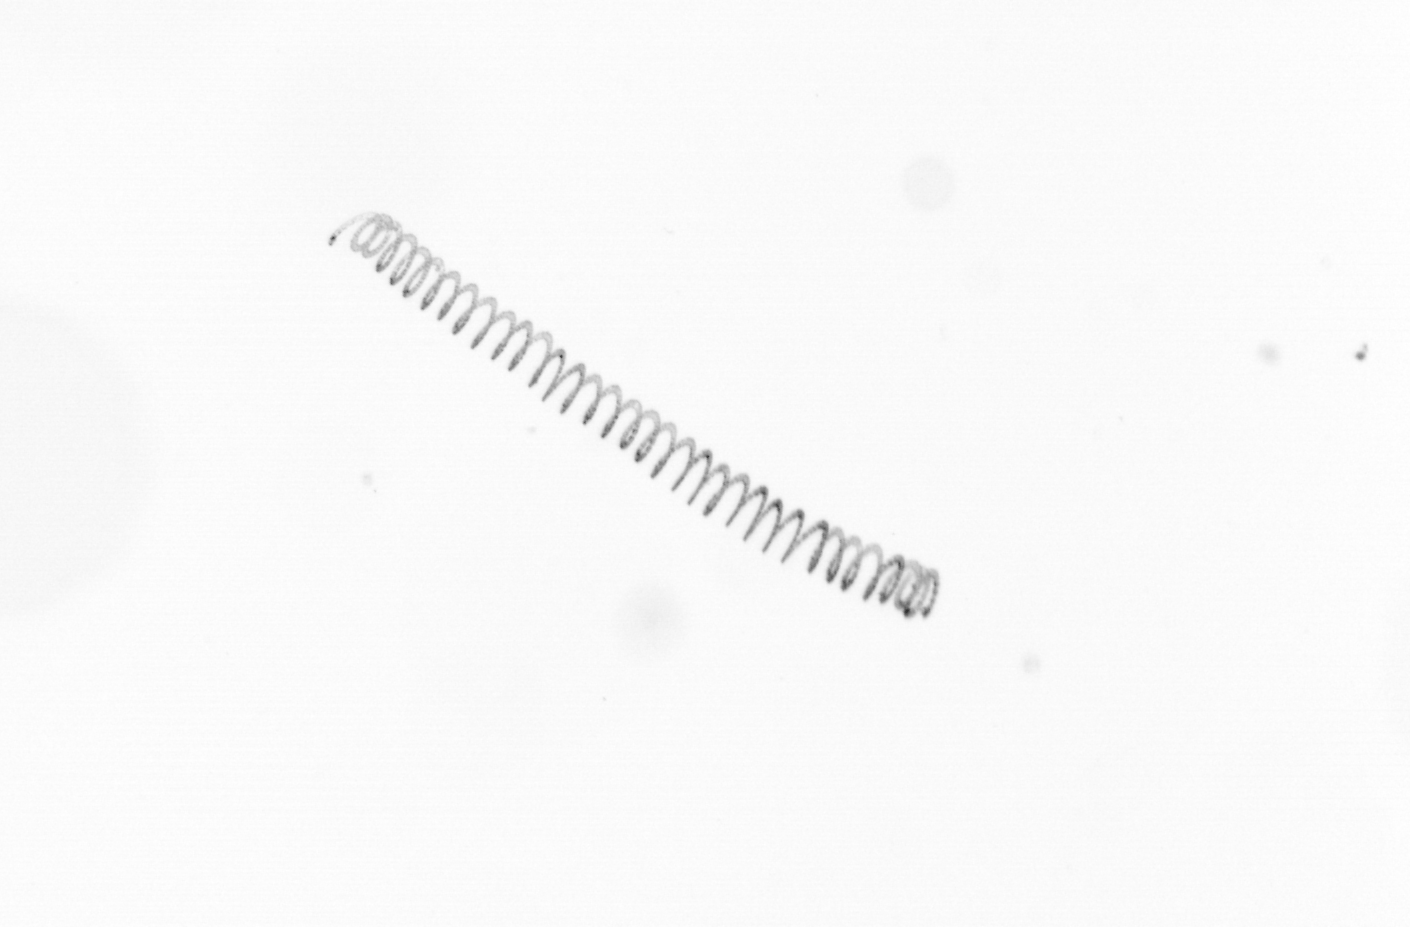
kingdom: Chromista
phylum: Ochrophyta
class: Bacillariophyceae
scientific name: Bacillariophyceae
